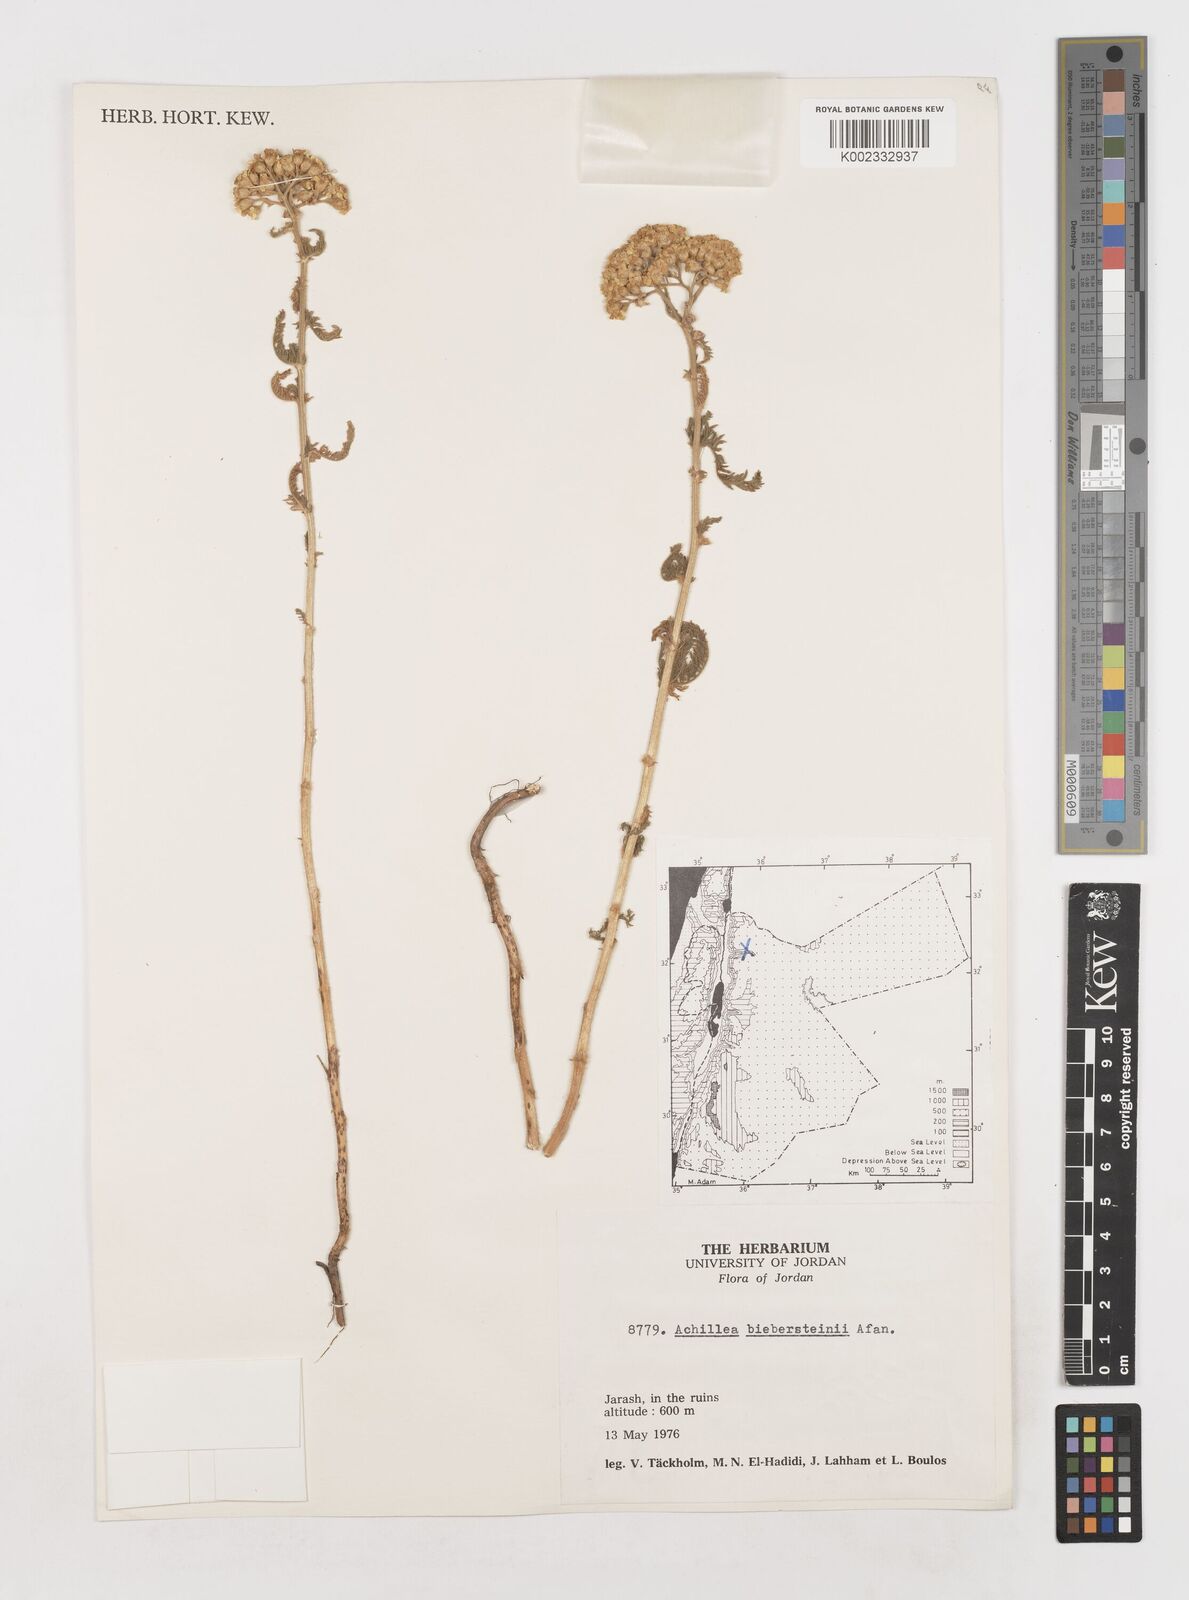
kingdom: Plantae
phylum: Tracheophyta
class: Magnoliopsida
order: Asterales
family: Asteraceae
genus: Achillea
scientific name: Achillea arabica
